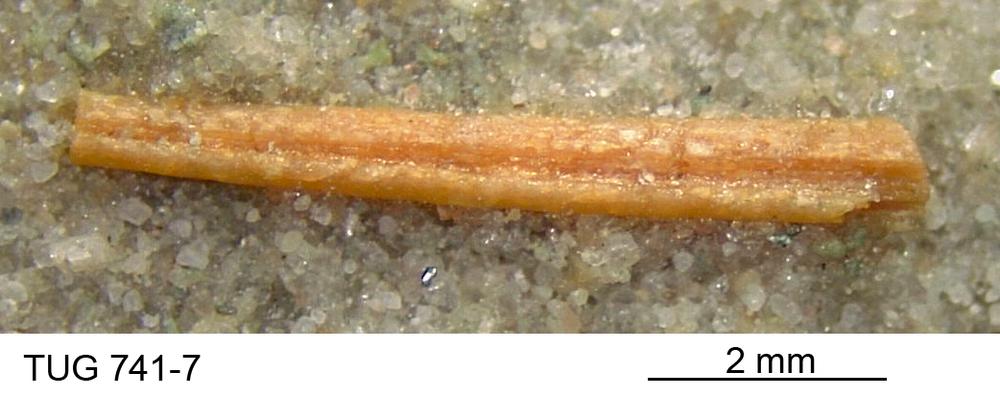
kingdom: Animalia
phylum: Chordata
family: Acanthodidae
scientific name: Acanthodidae
